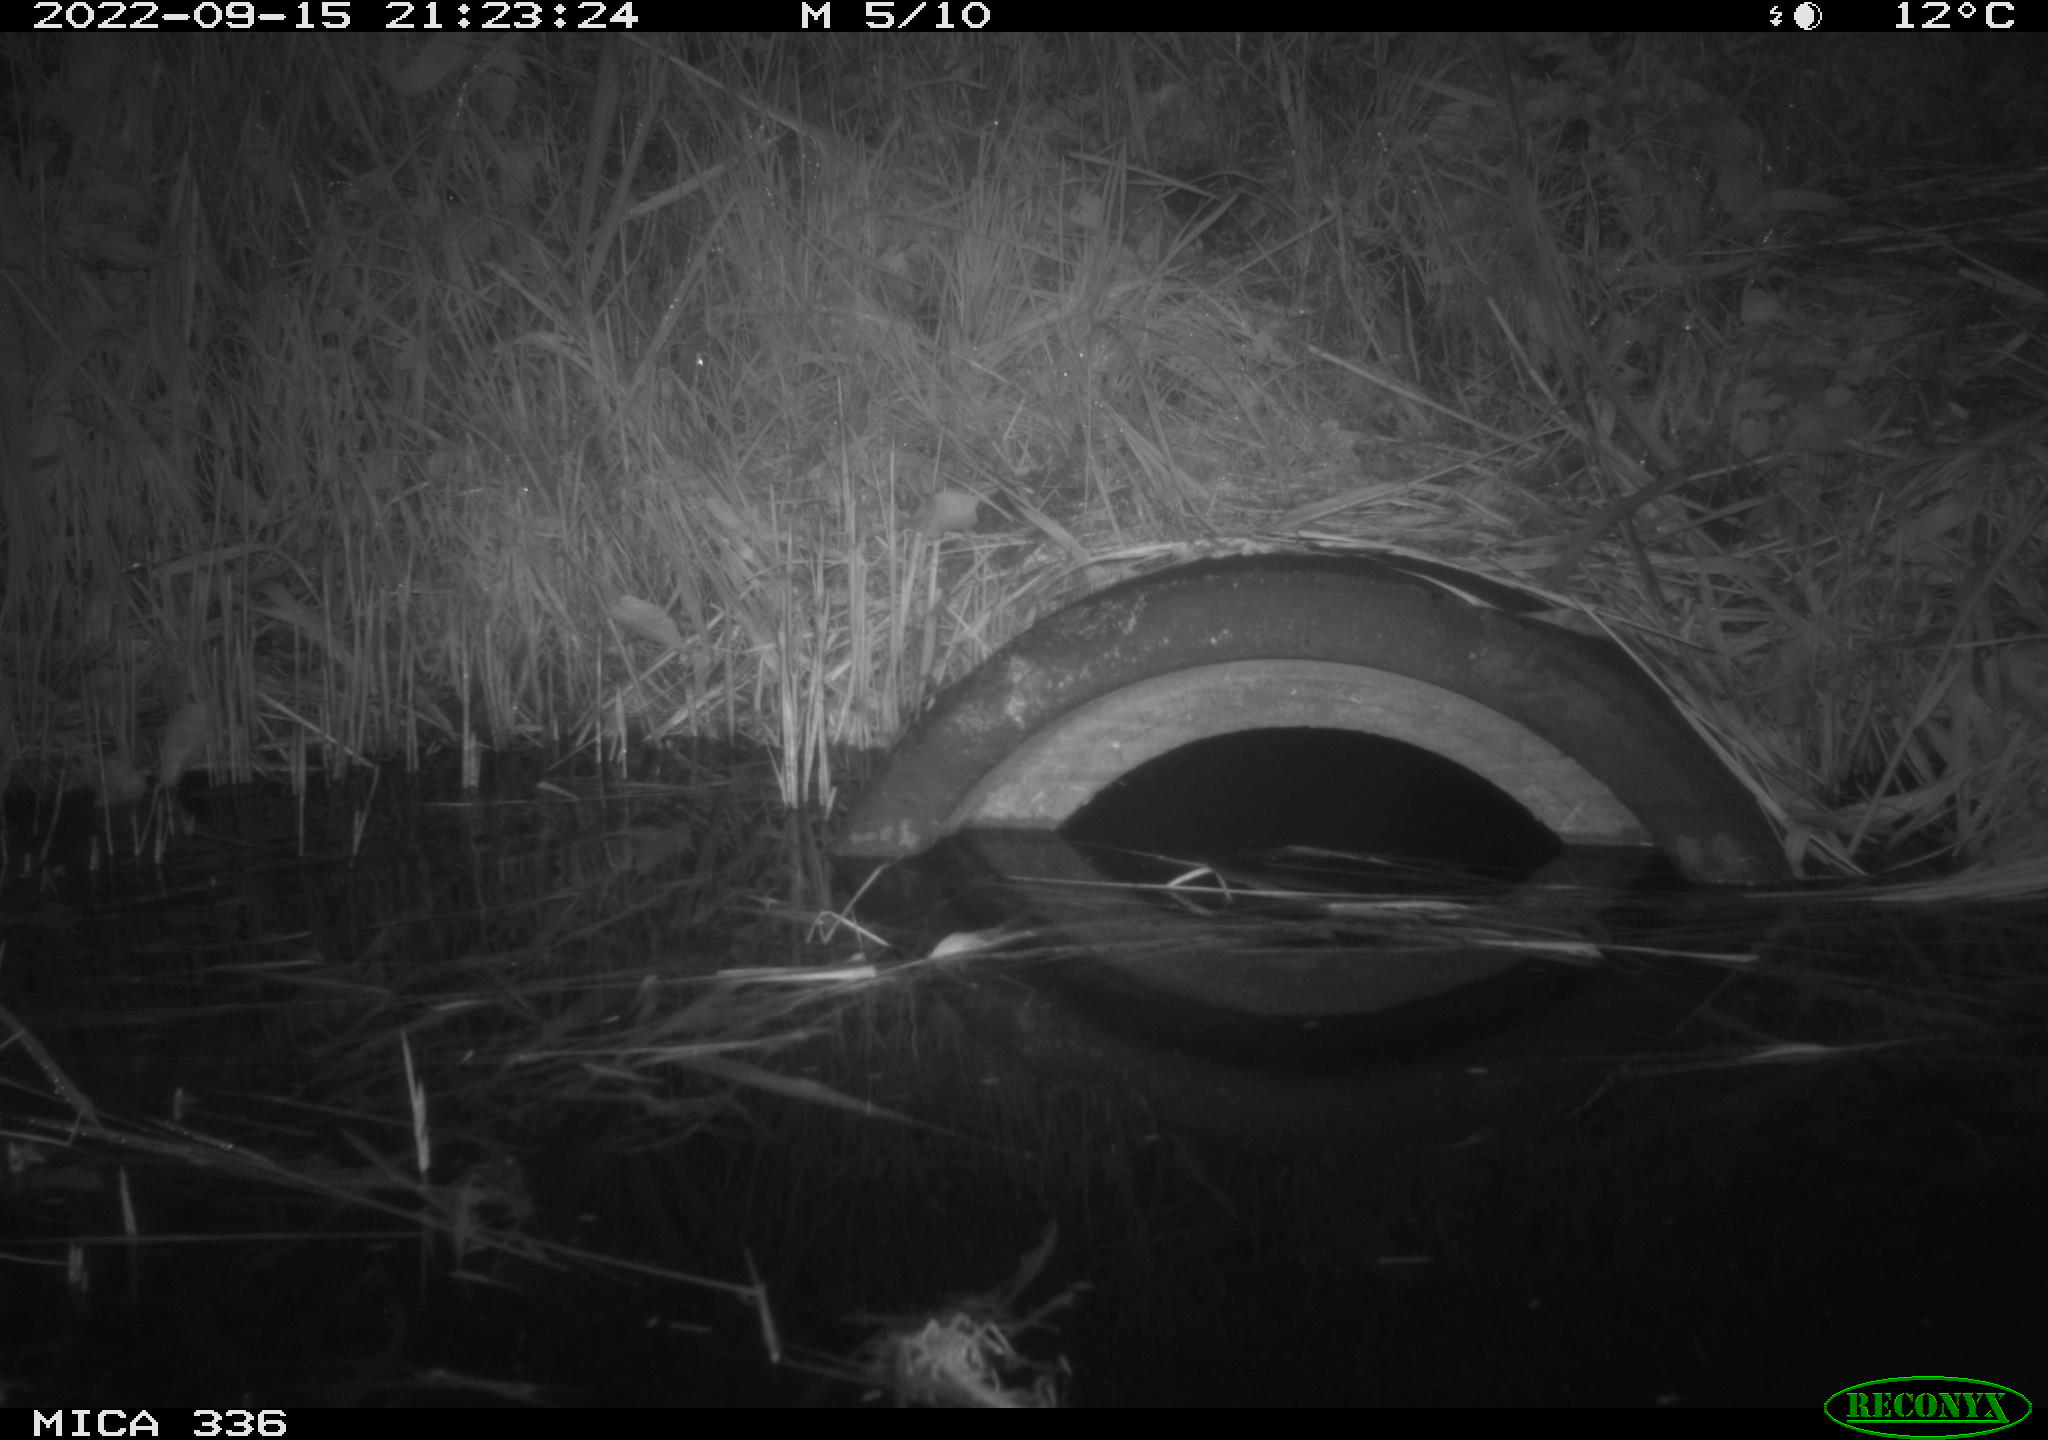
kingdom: Animalia
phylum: Chordata
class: Mammalia
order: Rodentia
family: Muridae
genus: Rattus
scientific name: Rattus norvegicus
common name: Brown rat
